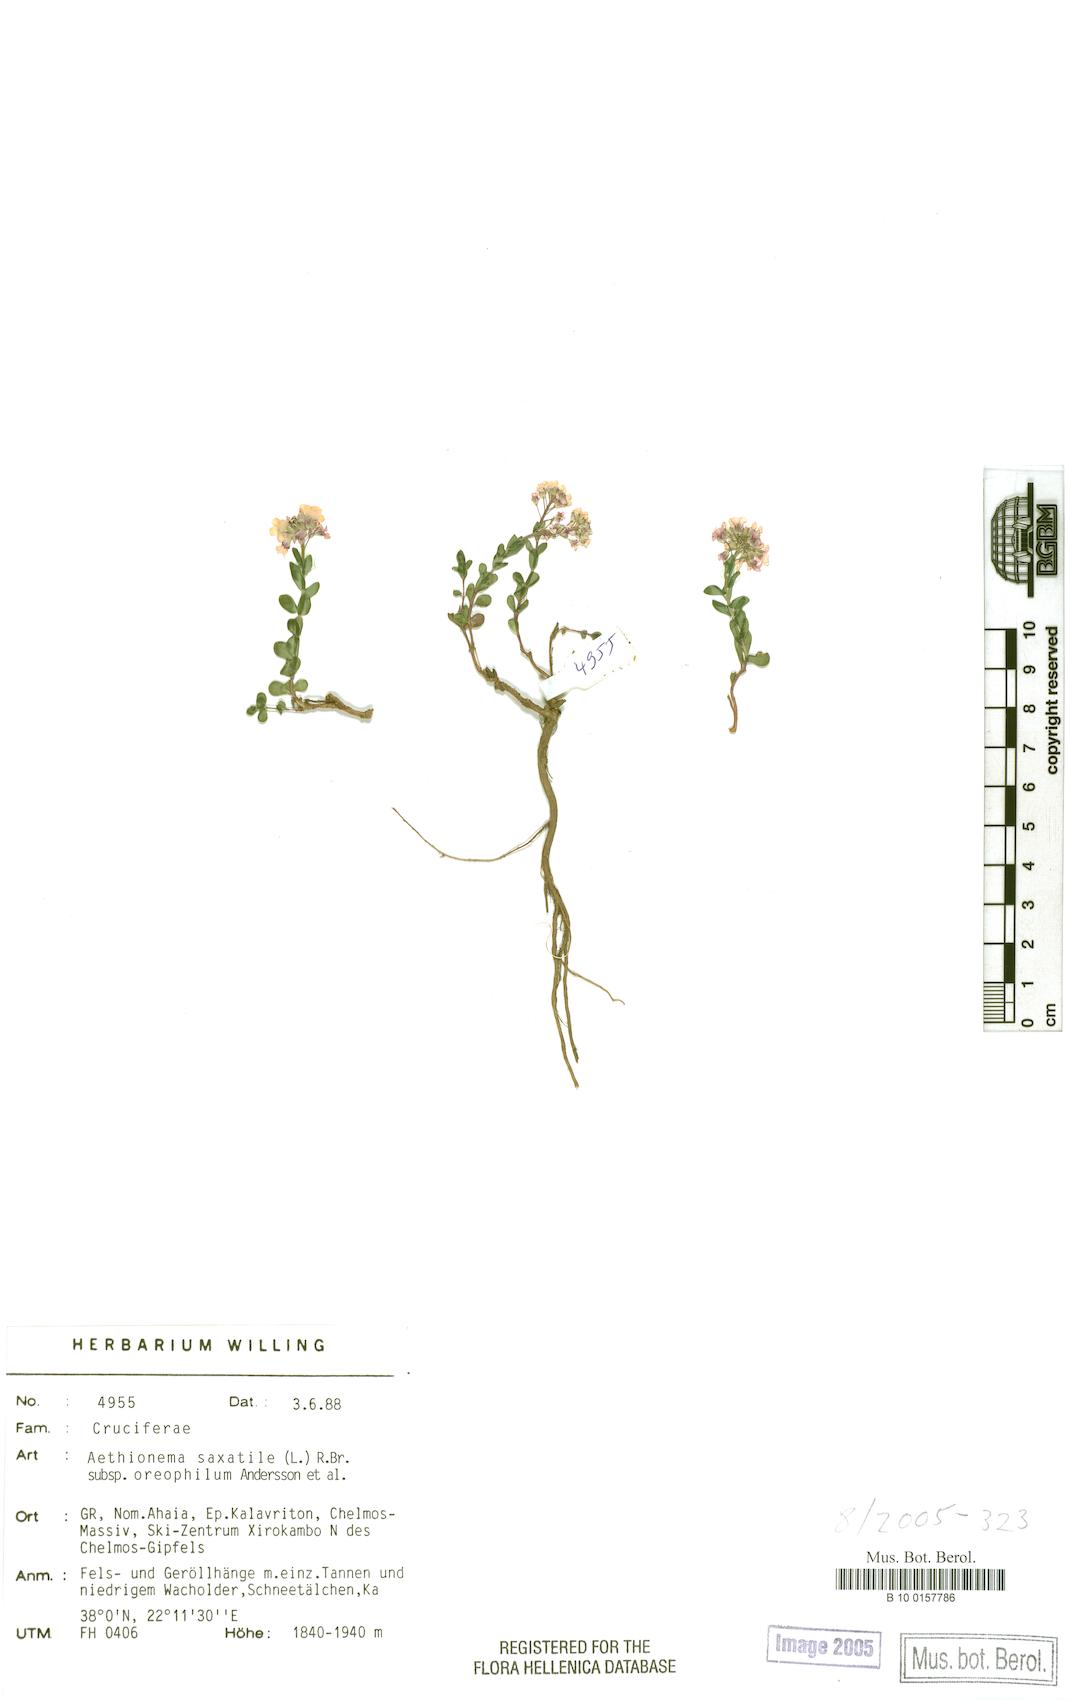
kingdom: Plantae
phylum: Tracheophyta
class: Magnoliopsida
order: Brassicales
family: Brassicaceae
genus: Aethionema
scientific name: Aethionema saxatile
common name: Burnt candytuft
